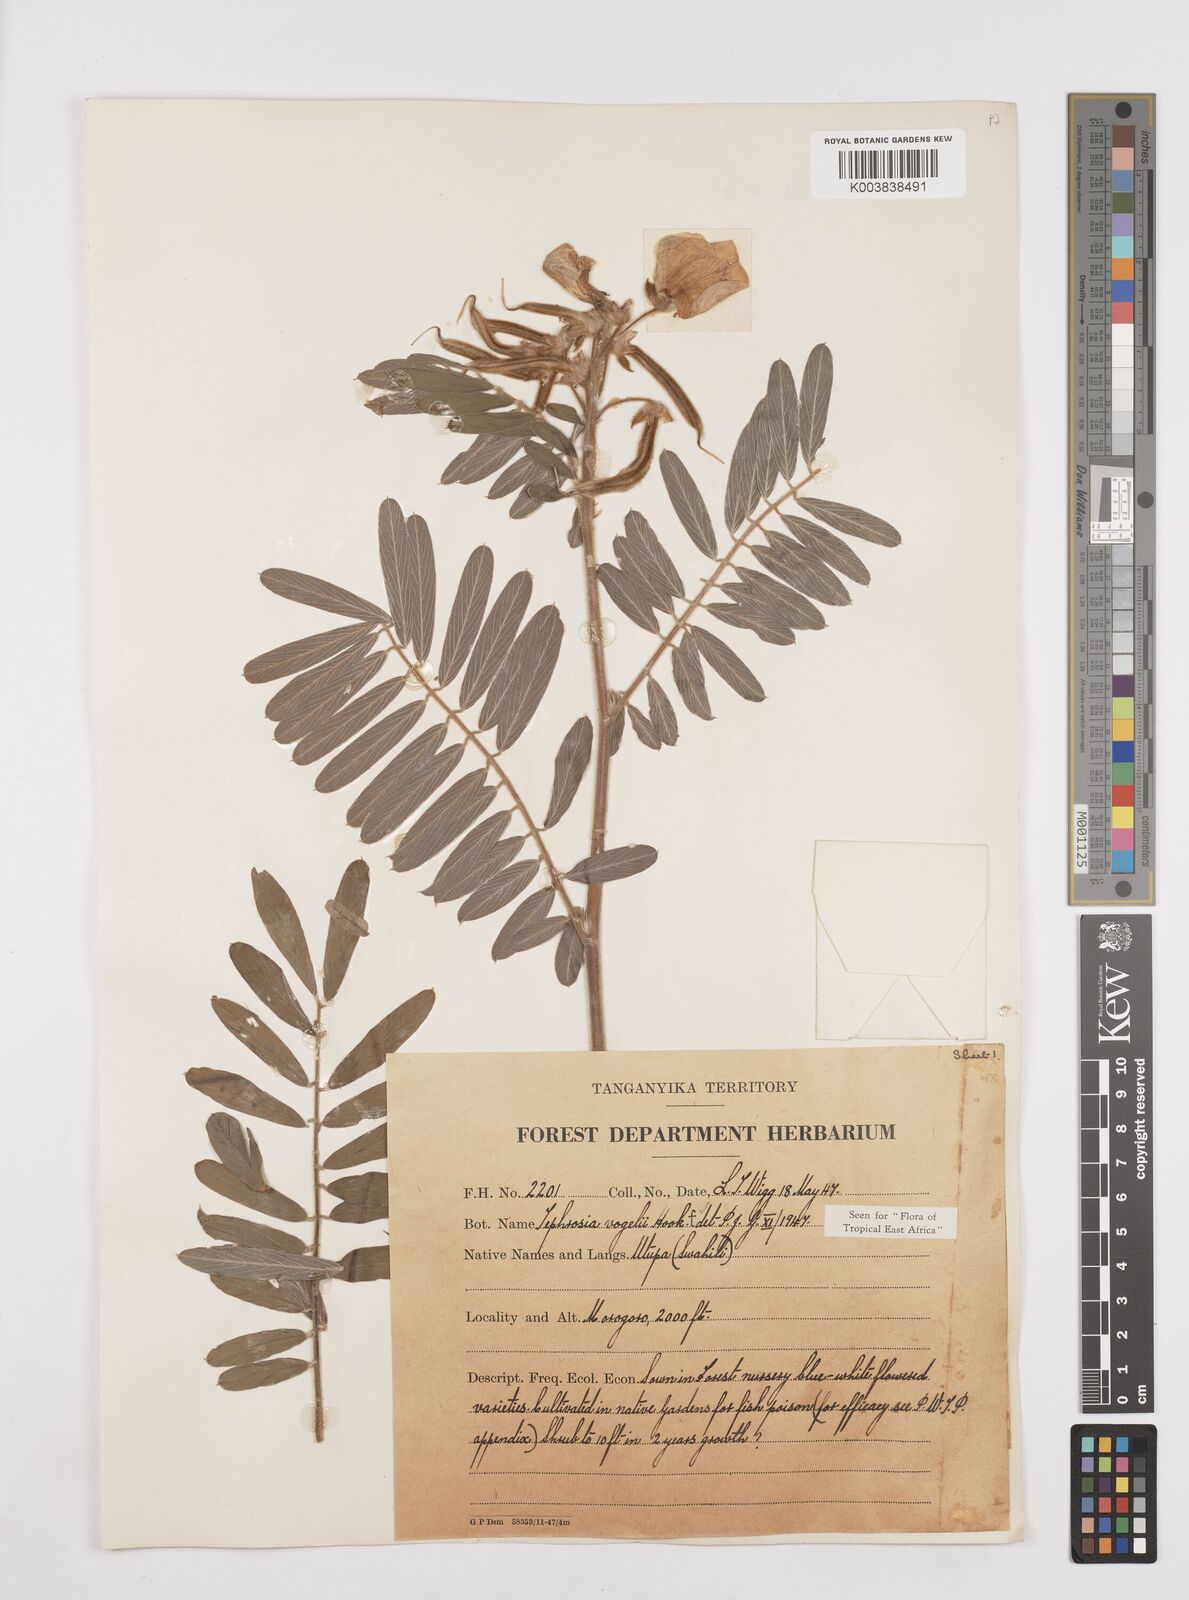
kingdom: Plantae
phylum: Tracheophyta
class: Magnoliopsida
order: Fabales
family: Fabaceae
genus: Tephrosia
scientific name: Tephrosia vogelii
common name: Vogel tephrosia
